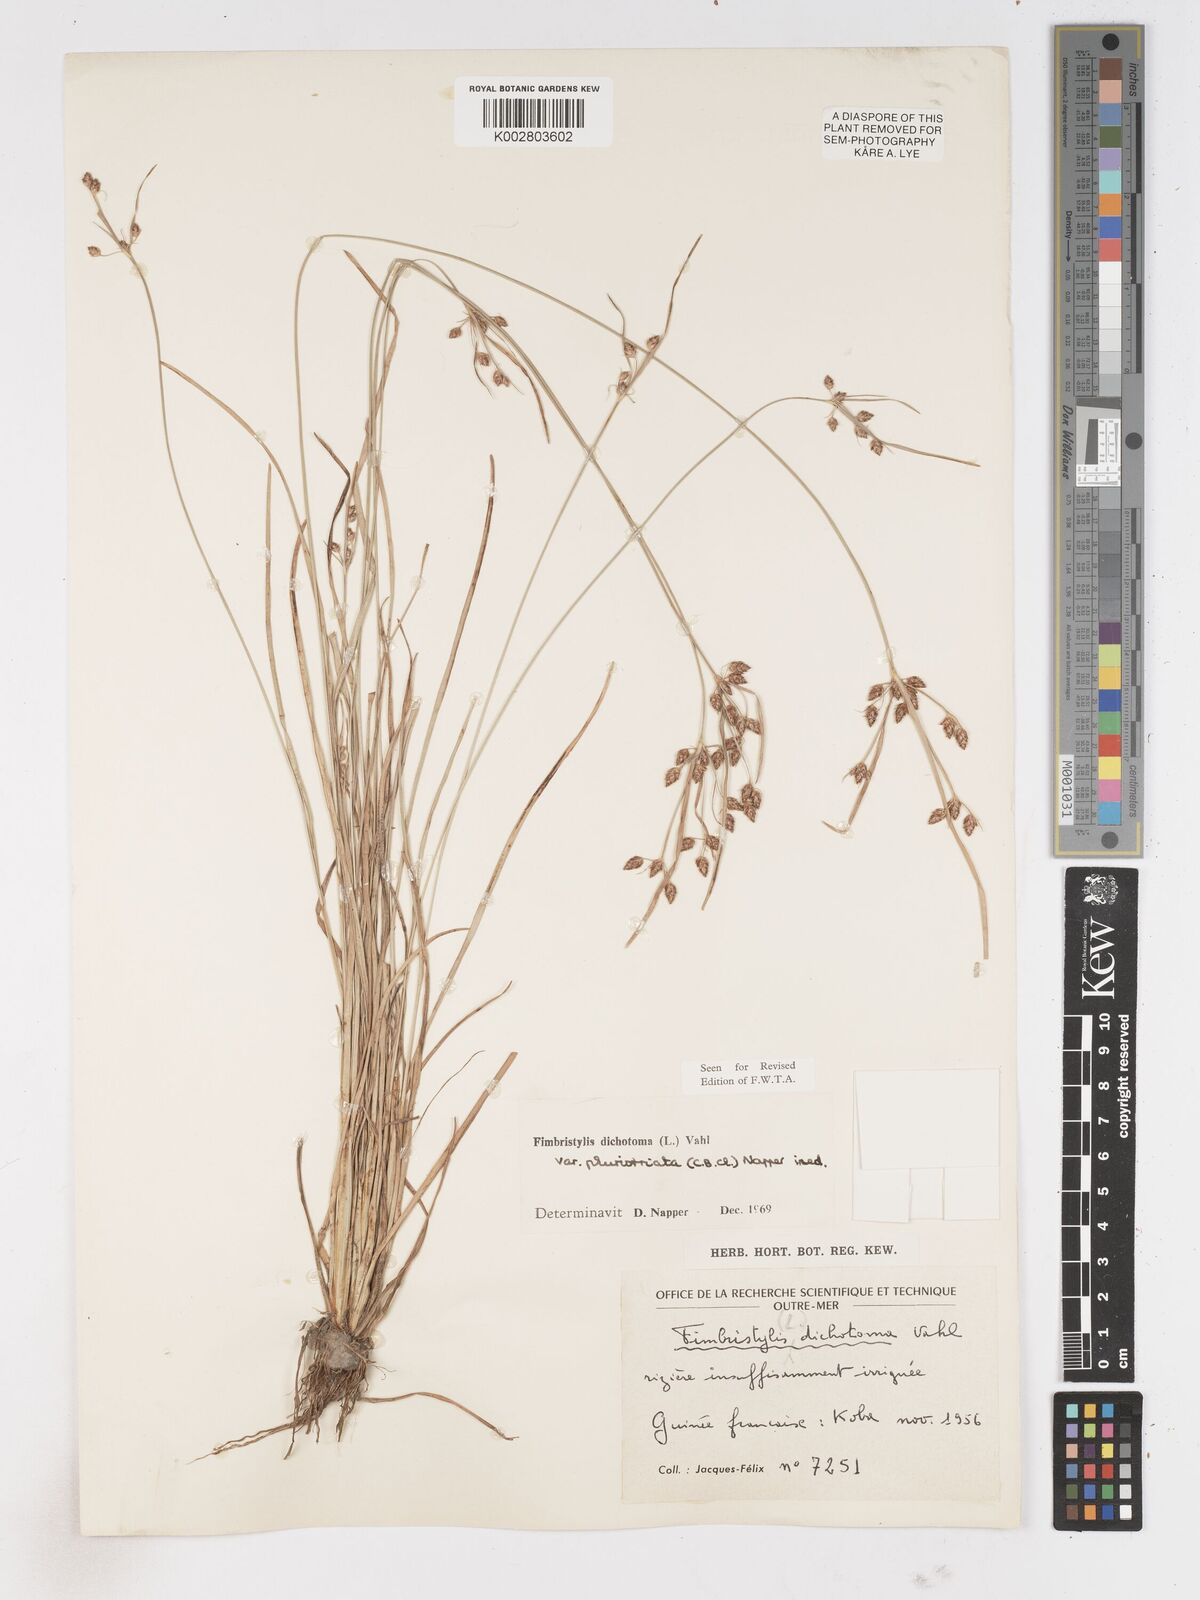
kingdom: Plantae
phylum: Tracheophyta
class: Liliopsida
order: Poales
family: Cyperaceae
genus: Fimbristylis
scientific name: Fimbristylis dichotoma
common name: Forked fimbry
